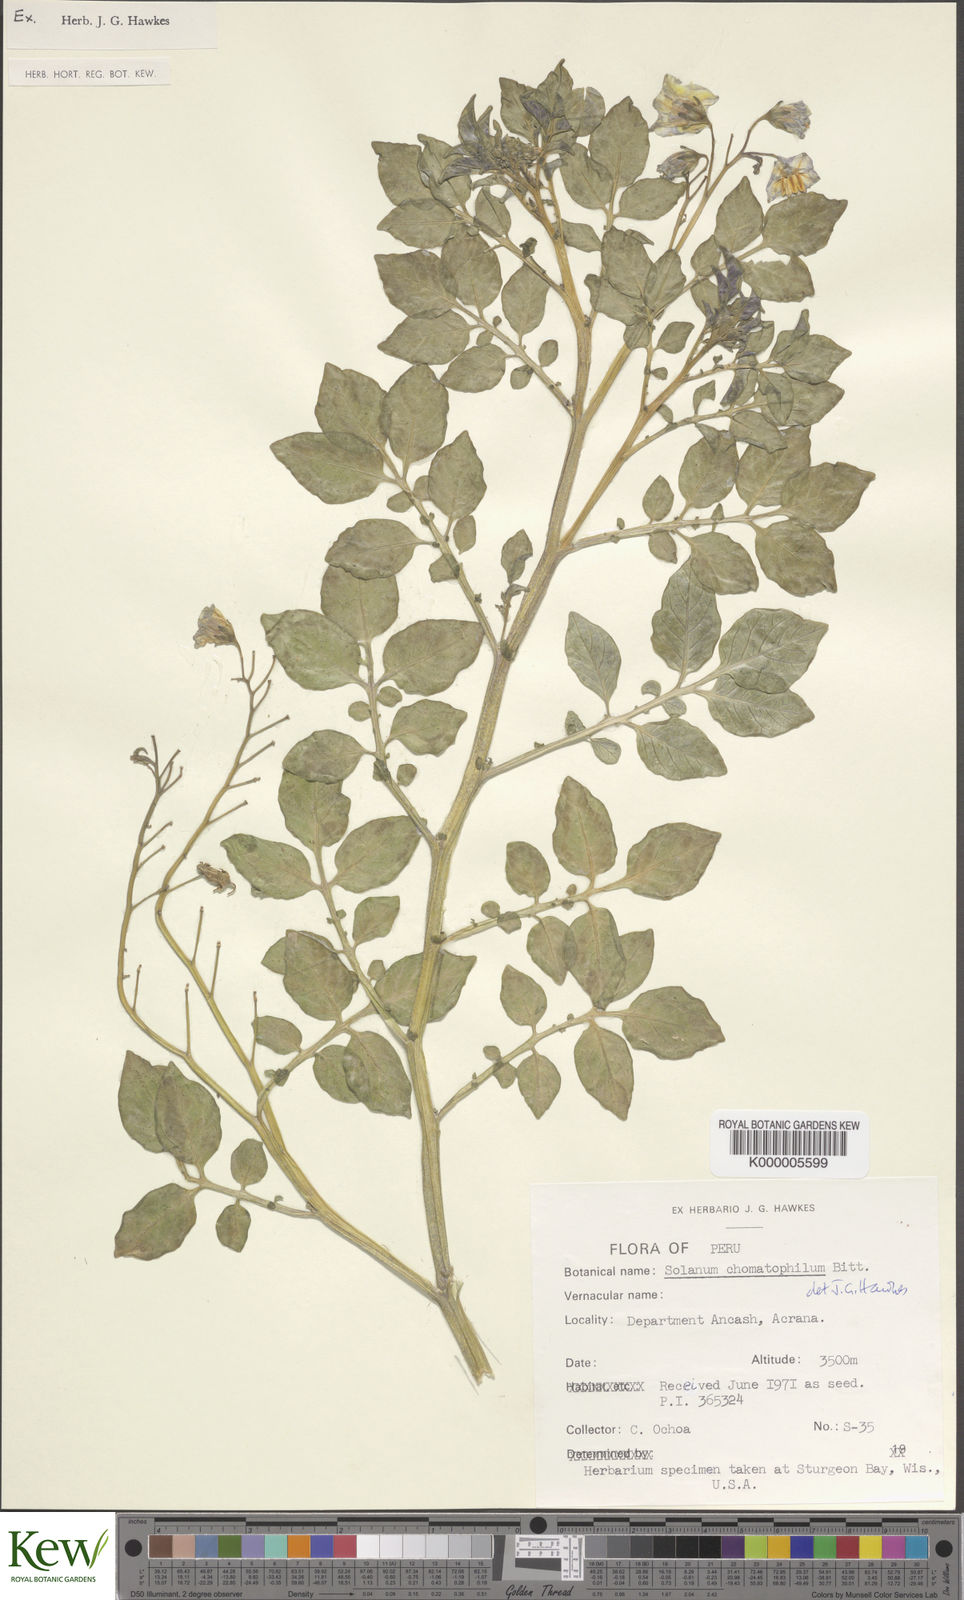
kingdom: Plantae
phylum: Tracheophyta
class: Magnoliopsida
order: Solanales
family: Solanaceae
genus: Solanum
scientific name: Solanum chomatophilum
